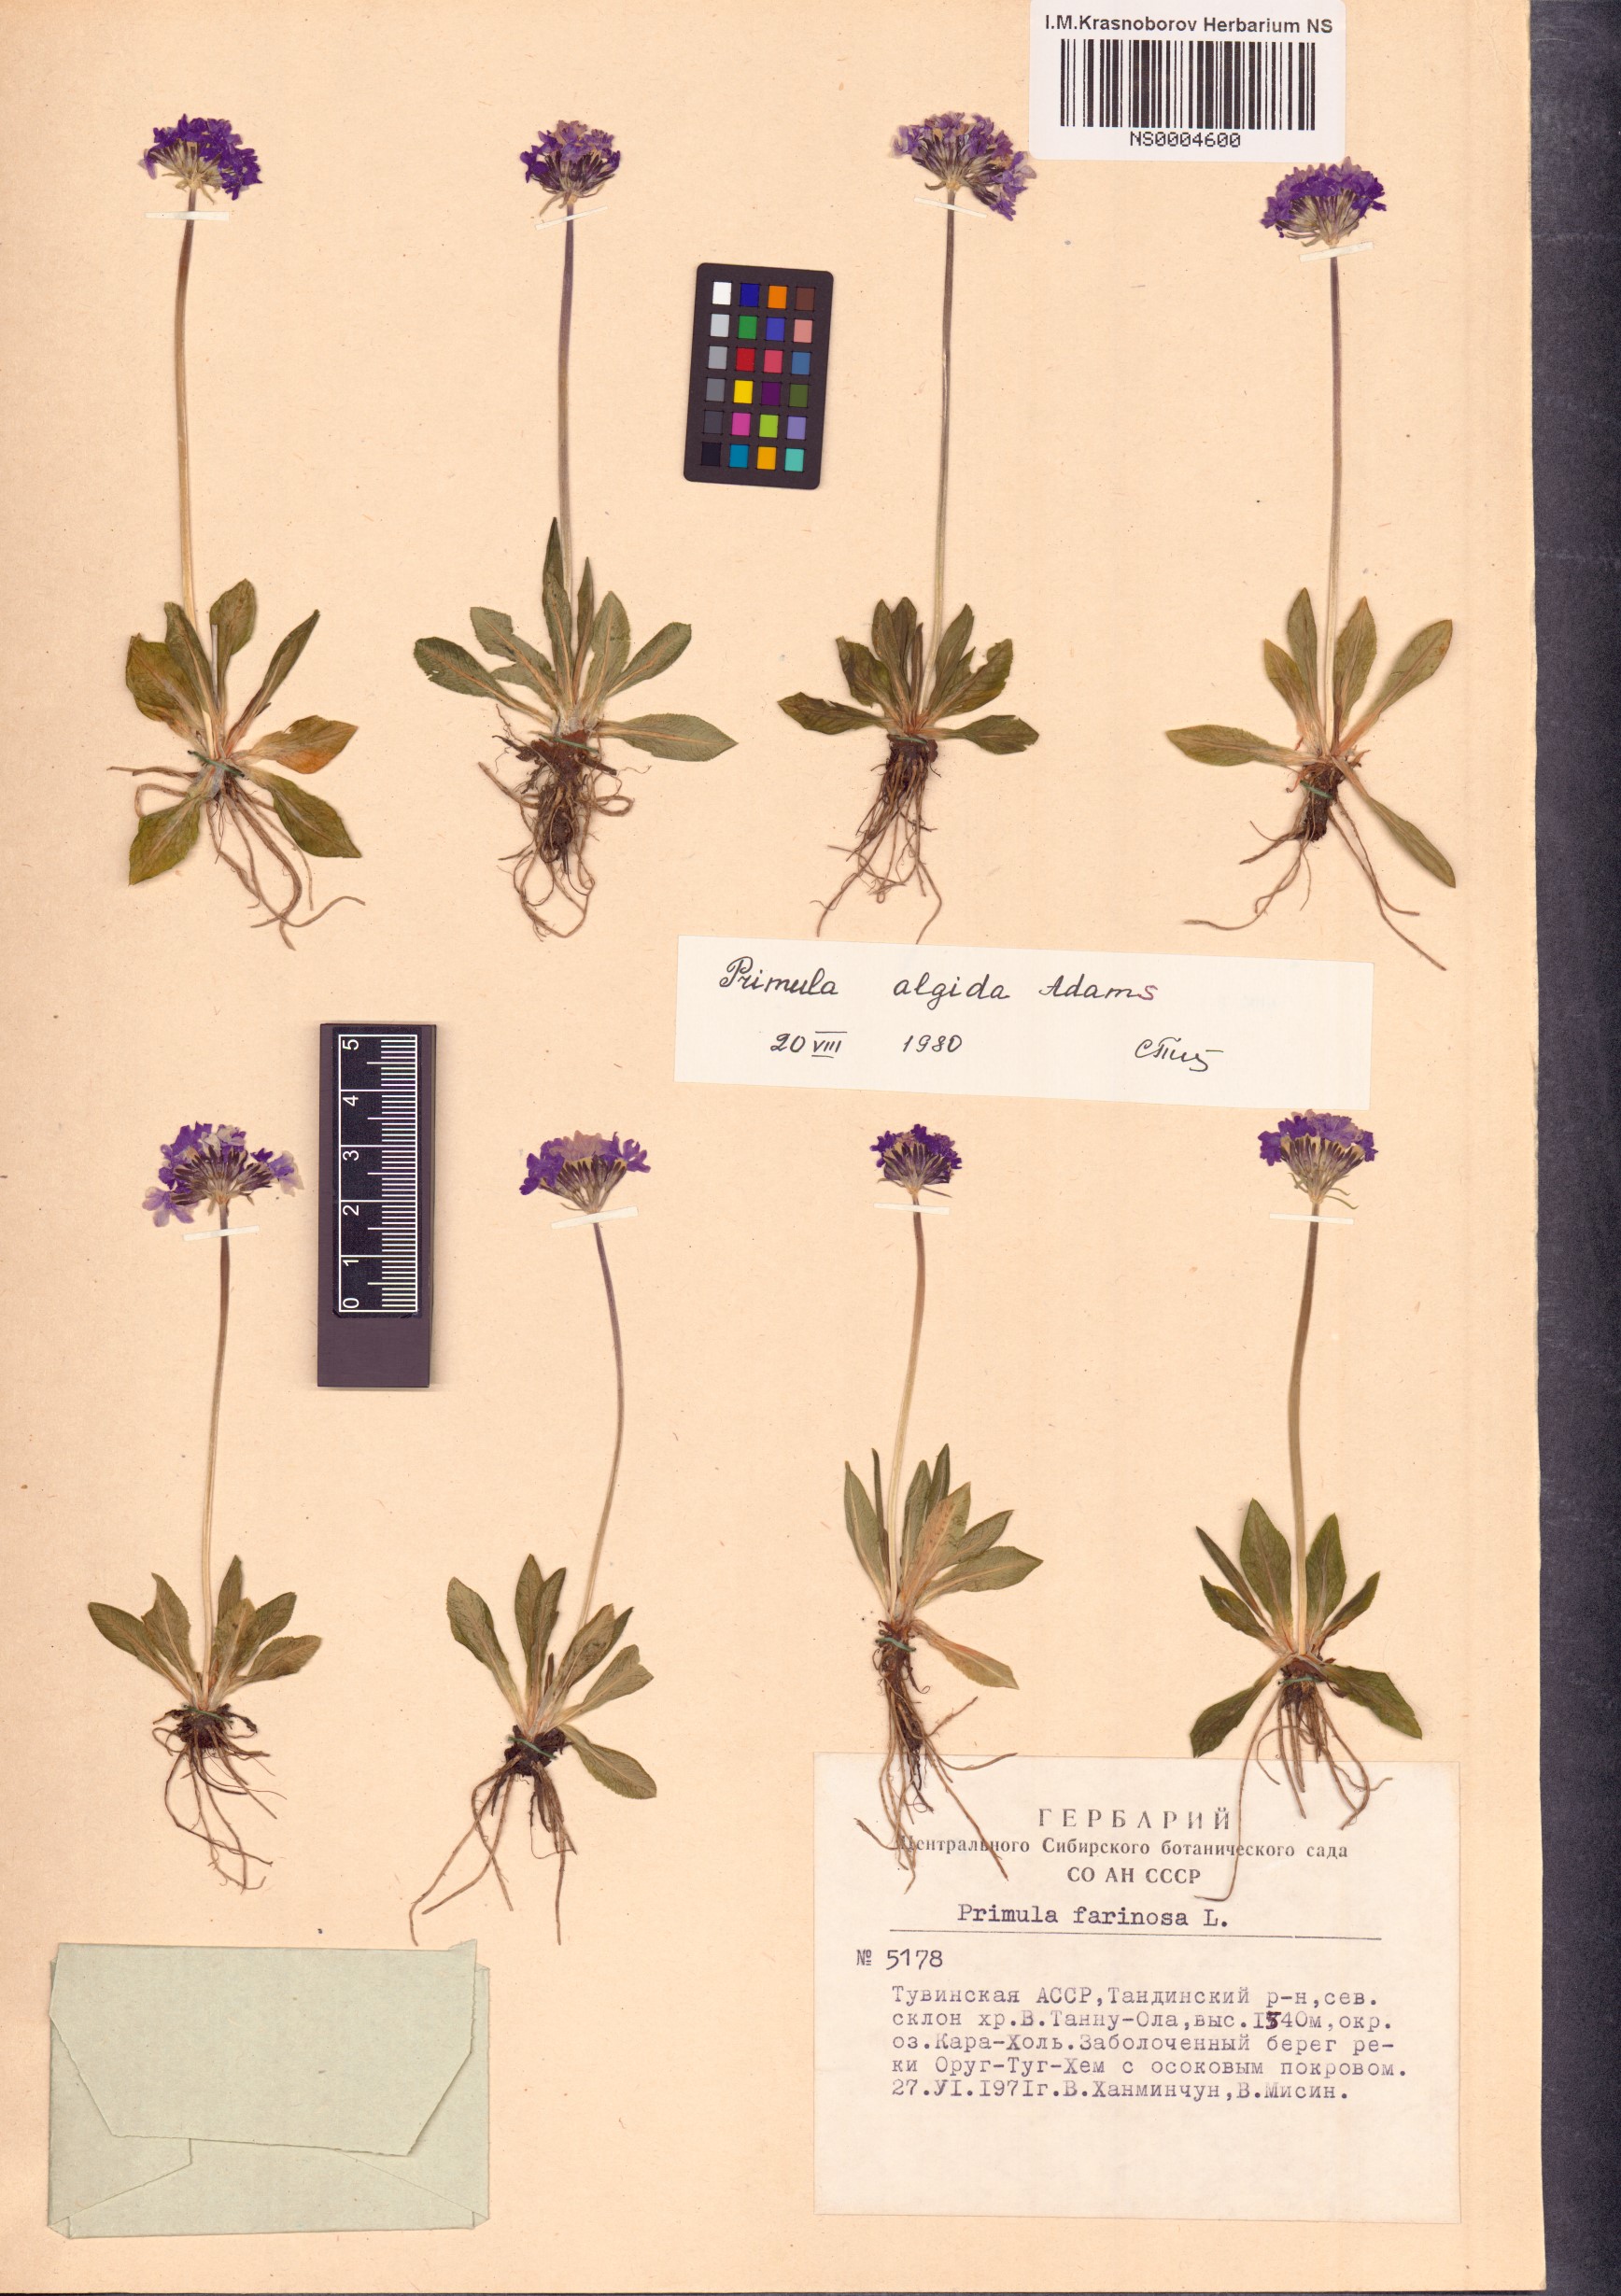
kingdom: Plantae
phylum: Tracheophyta
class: Magnoliopsida
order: Ericales
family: Primulaceae
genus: Primula
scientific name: Primula algida
